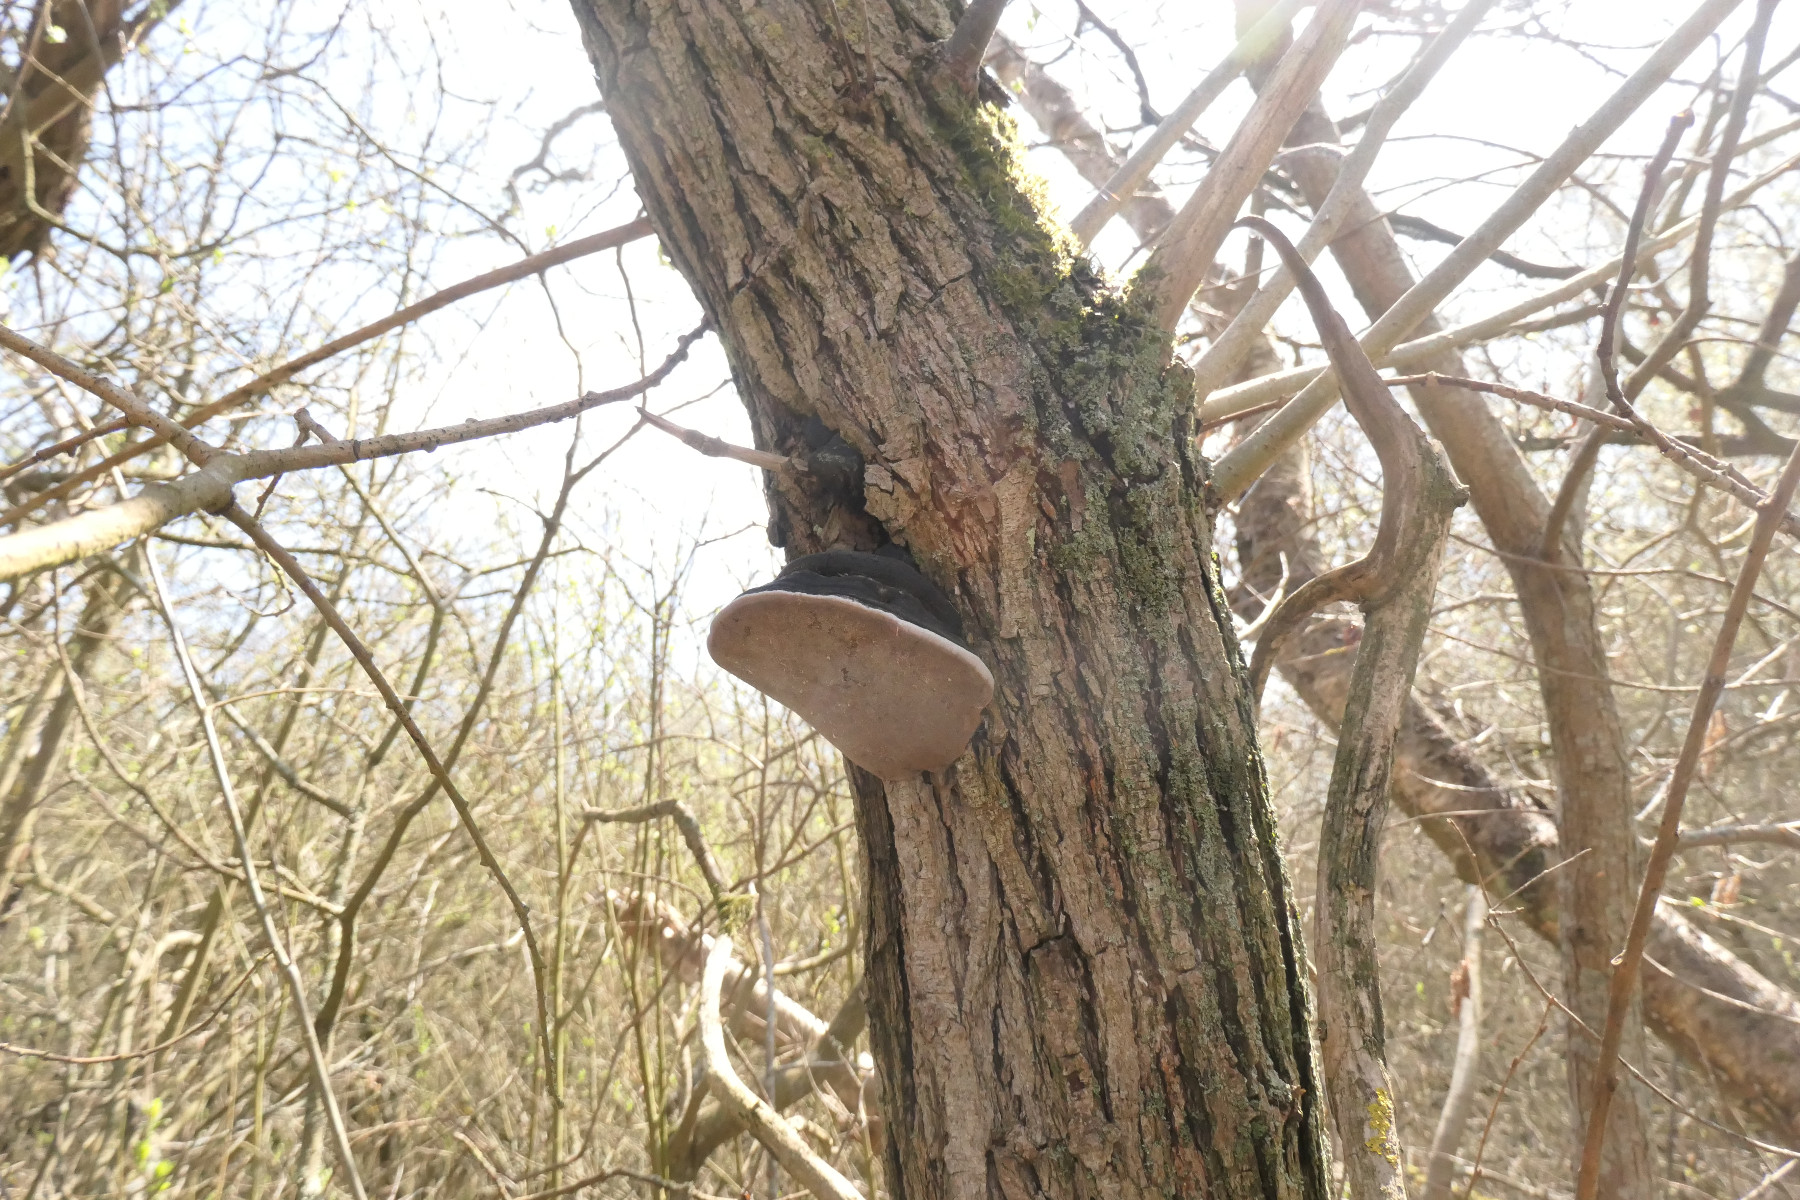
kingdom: Fungi
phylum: Basidiomycota
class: Agaricomycetes
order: Hymenochaetales
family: Hymenochaetaceae
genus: Phellinus
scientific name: Phellinus igniarius
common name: almindelig ildporesvamp
